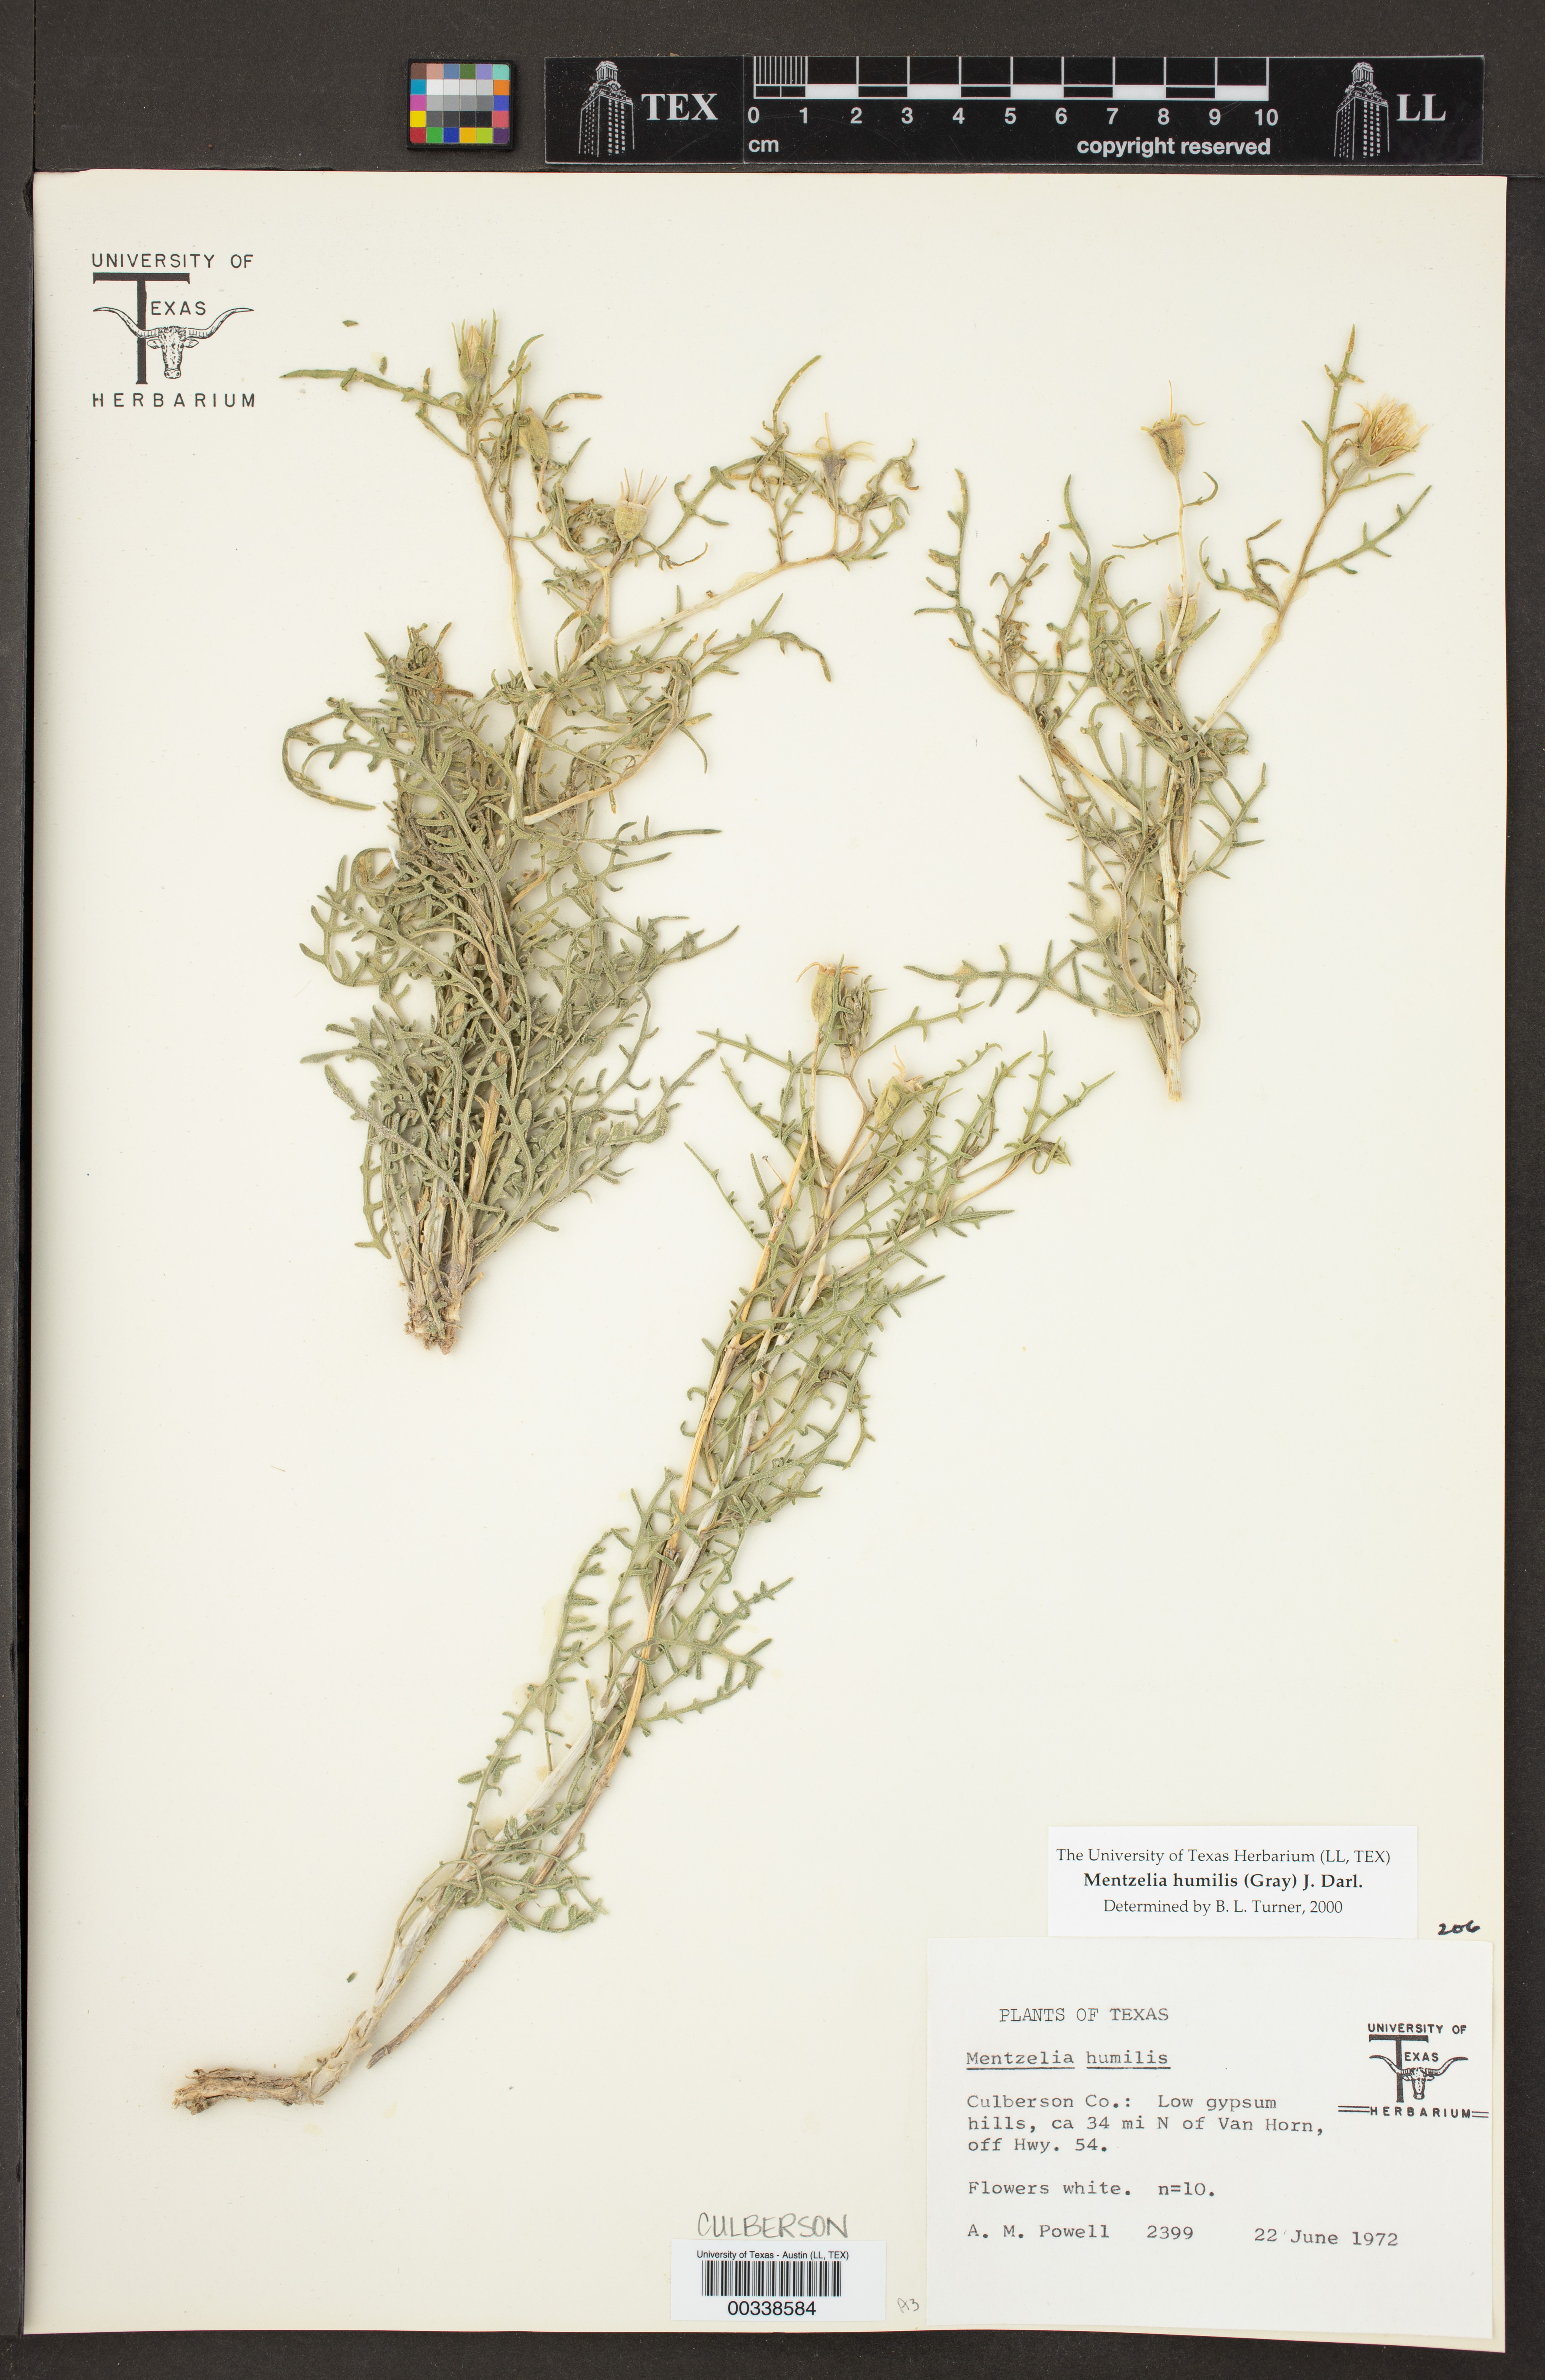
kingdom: Plantae
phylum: Tracheophyta
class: Magnoliopsida
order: Cornales
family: Loasaceae
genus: Mentzelia
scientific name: Mentzelia humilis
